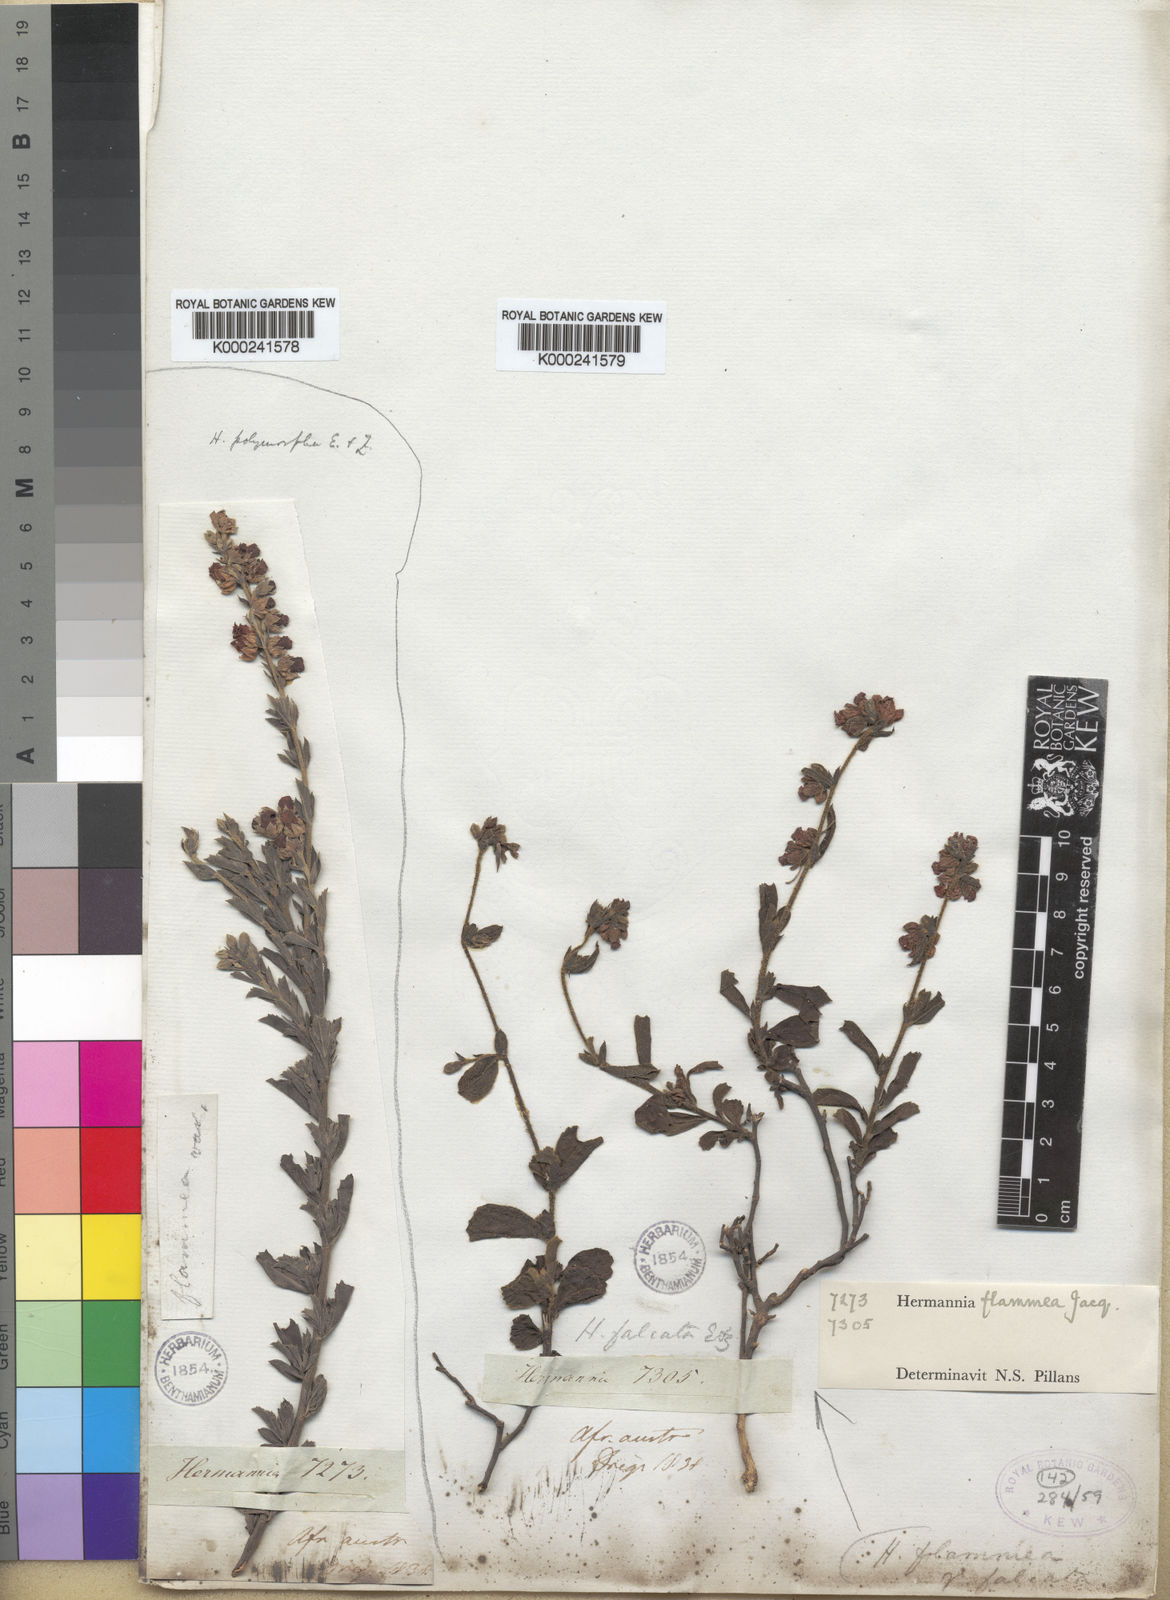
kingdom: Plantae
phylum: Tracheophyta
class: Magnoliopsida
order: Malvales
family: Malvaceae
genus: Hermannia
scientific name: Hermannia flammea
